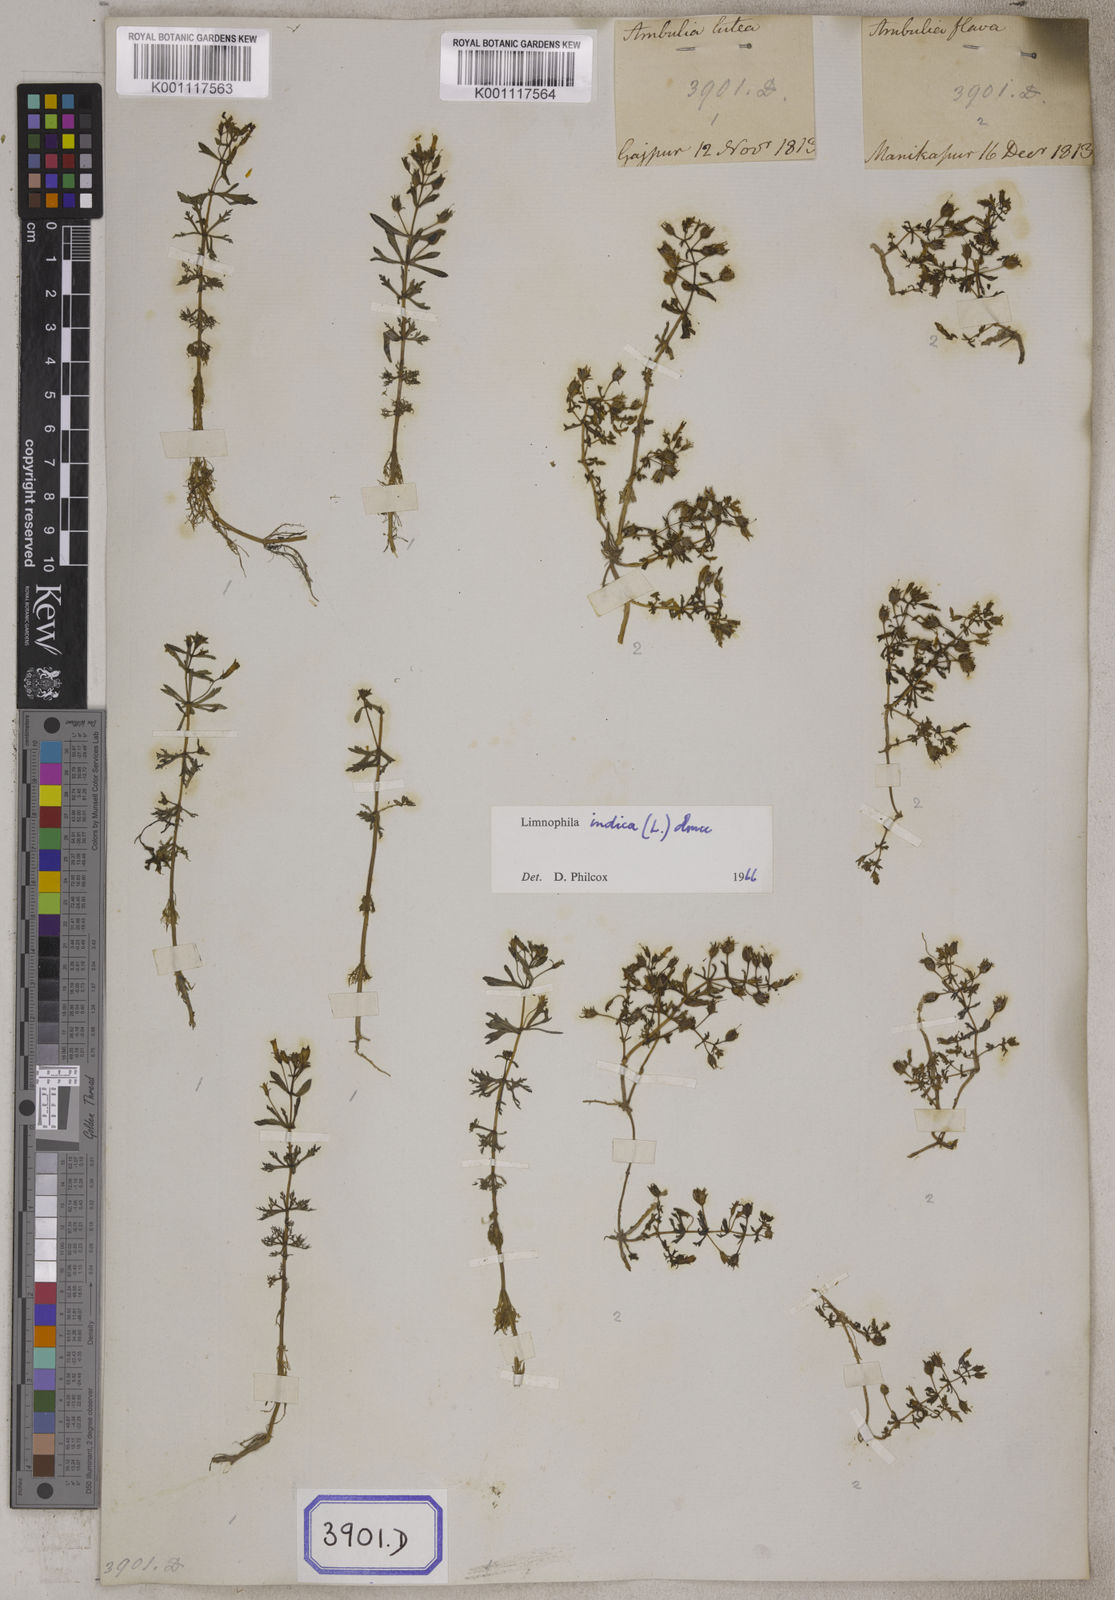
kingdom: Plantae
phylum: Tracheophyta
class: Magnoliopsida
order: Lamiales
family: Plantaginaceae
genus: Limnophila
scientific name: Limnophila indica
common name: Indian marshweed
